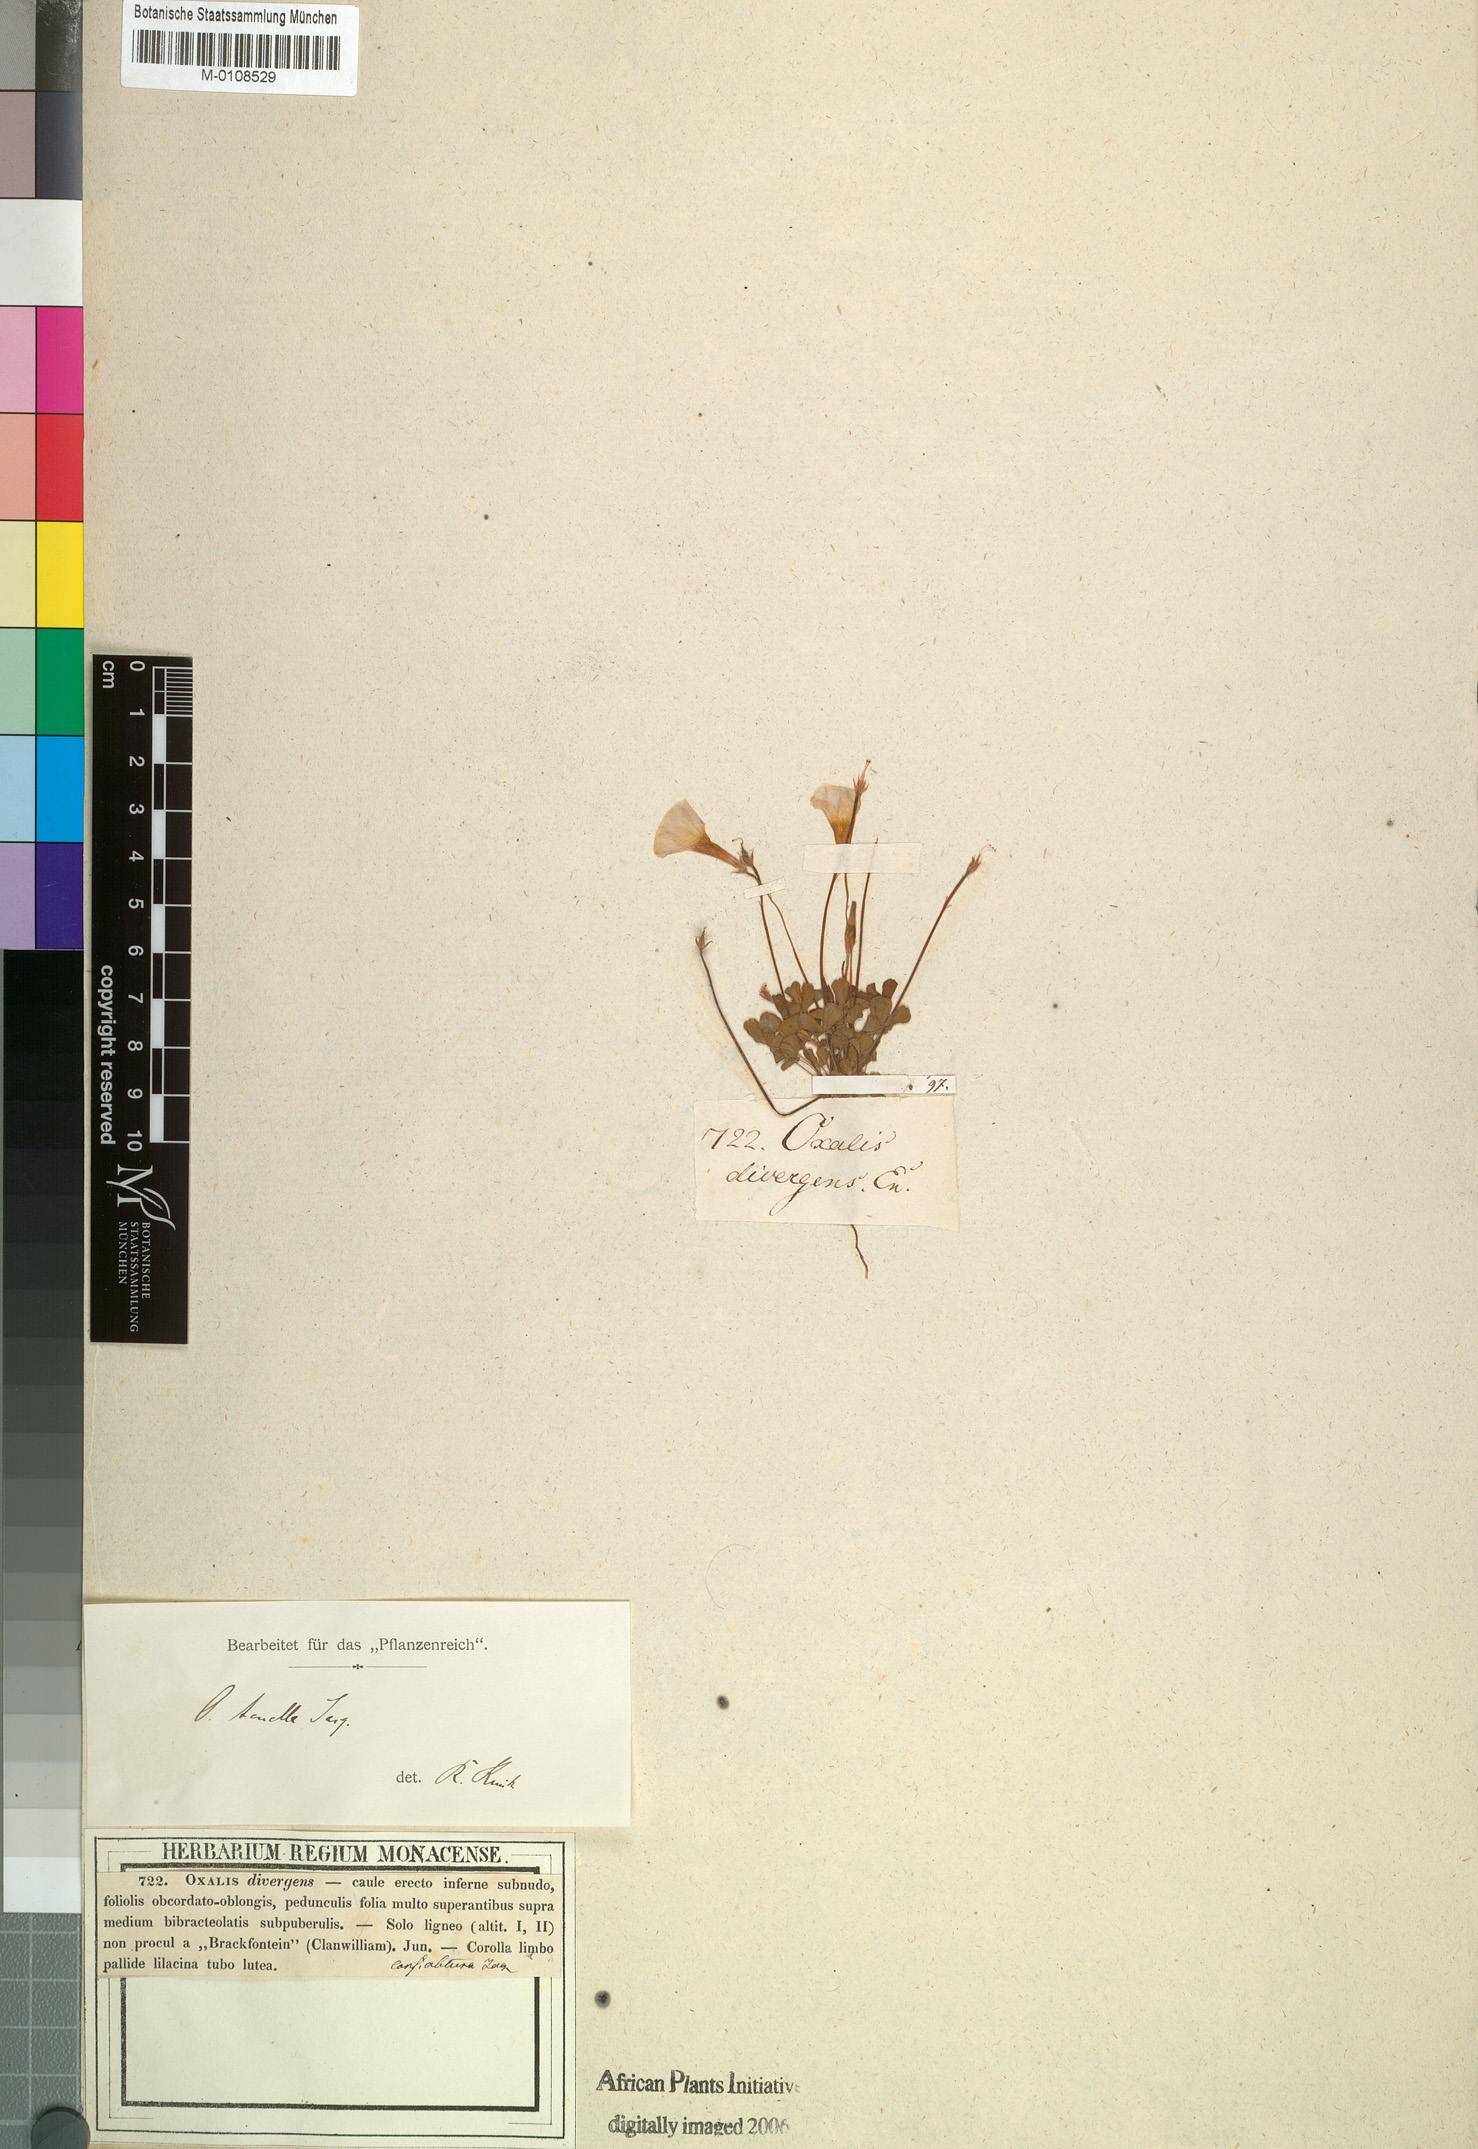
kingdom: Plantae
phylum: Tracheophyta
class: Magnoliopsida
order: Oxalidales
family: Oxalidaceae
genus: Oxalis
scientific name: Oxalis tenella
